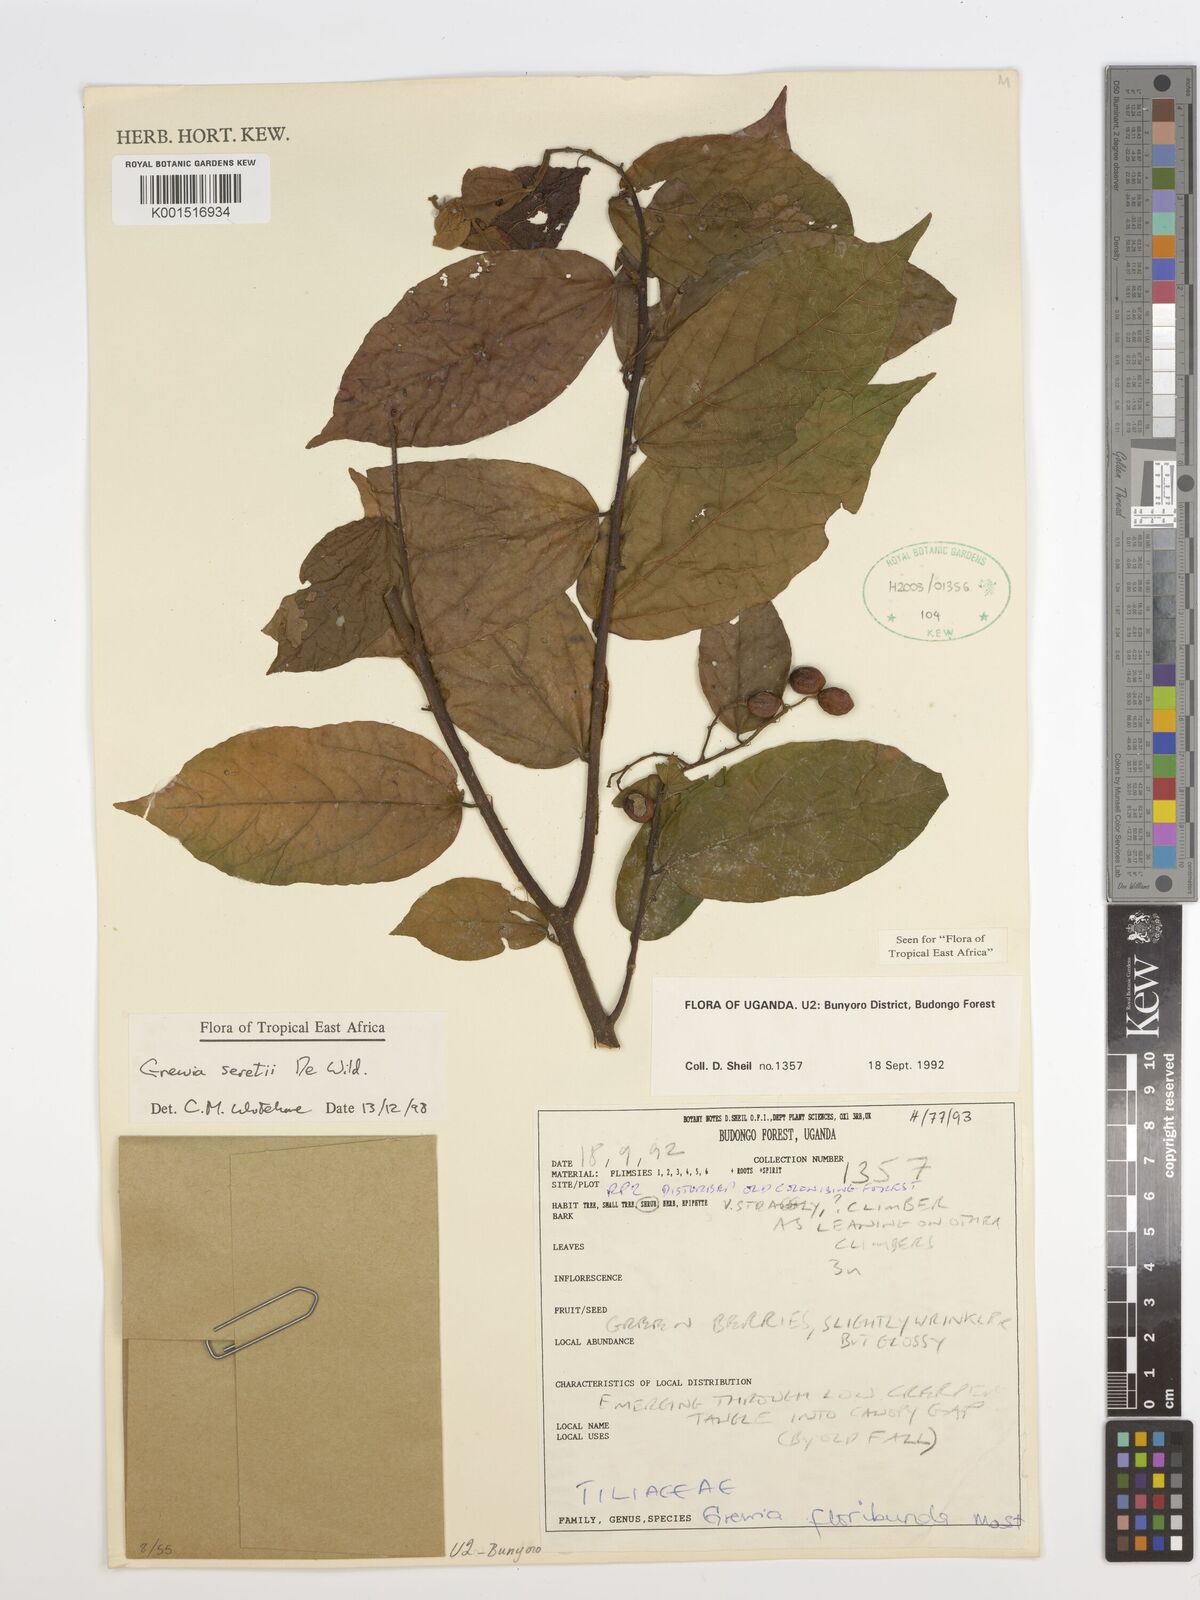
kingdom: Plantae
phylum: Tracheophyta
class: Magnoliopsida
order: Malvales
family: Malvaceae
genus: Microcos
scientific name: Microcos seretii
